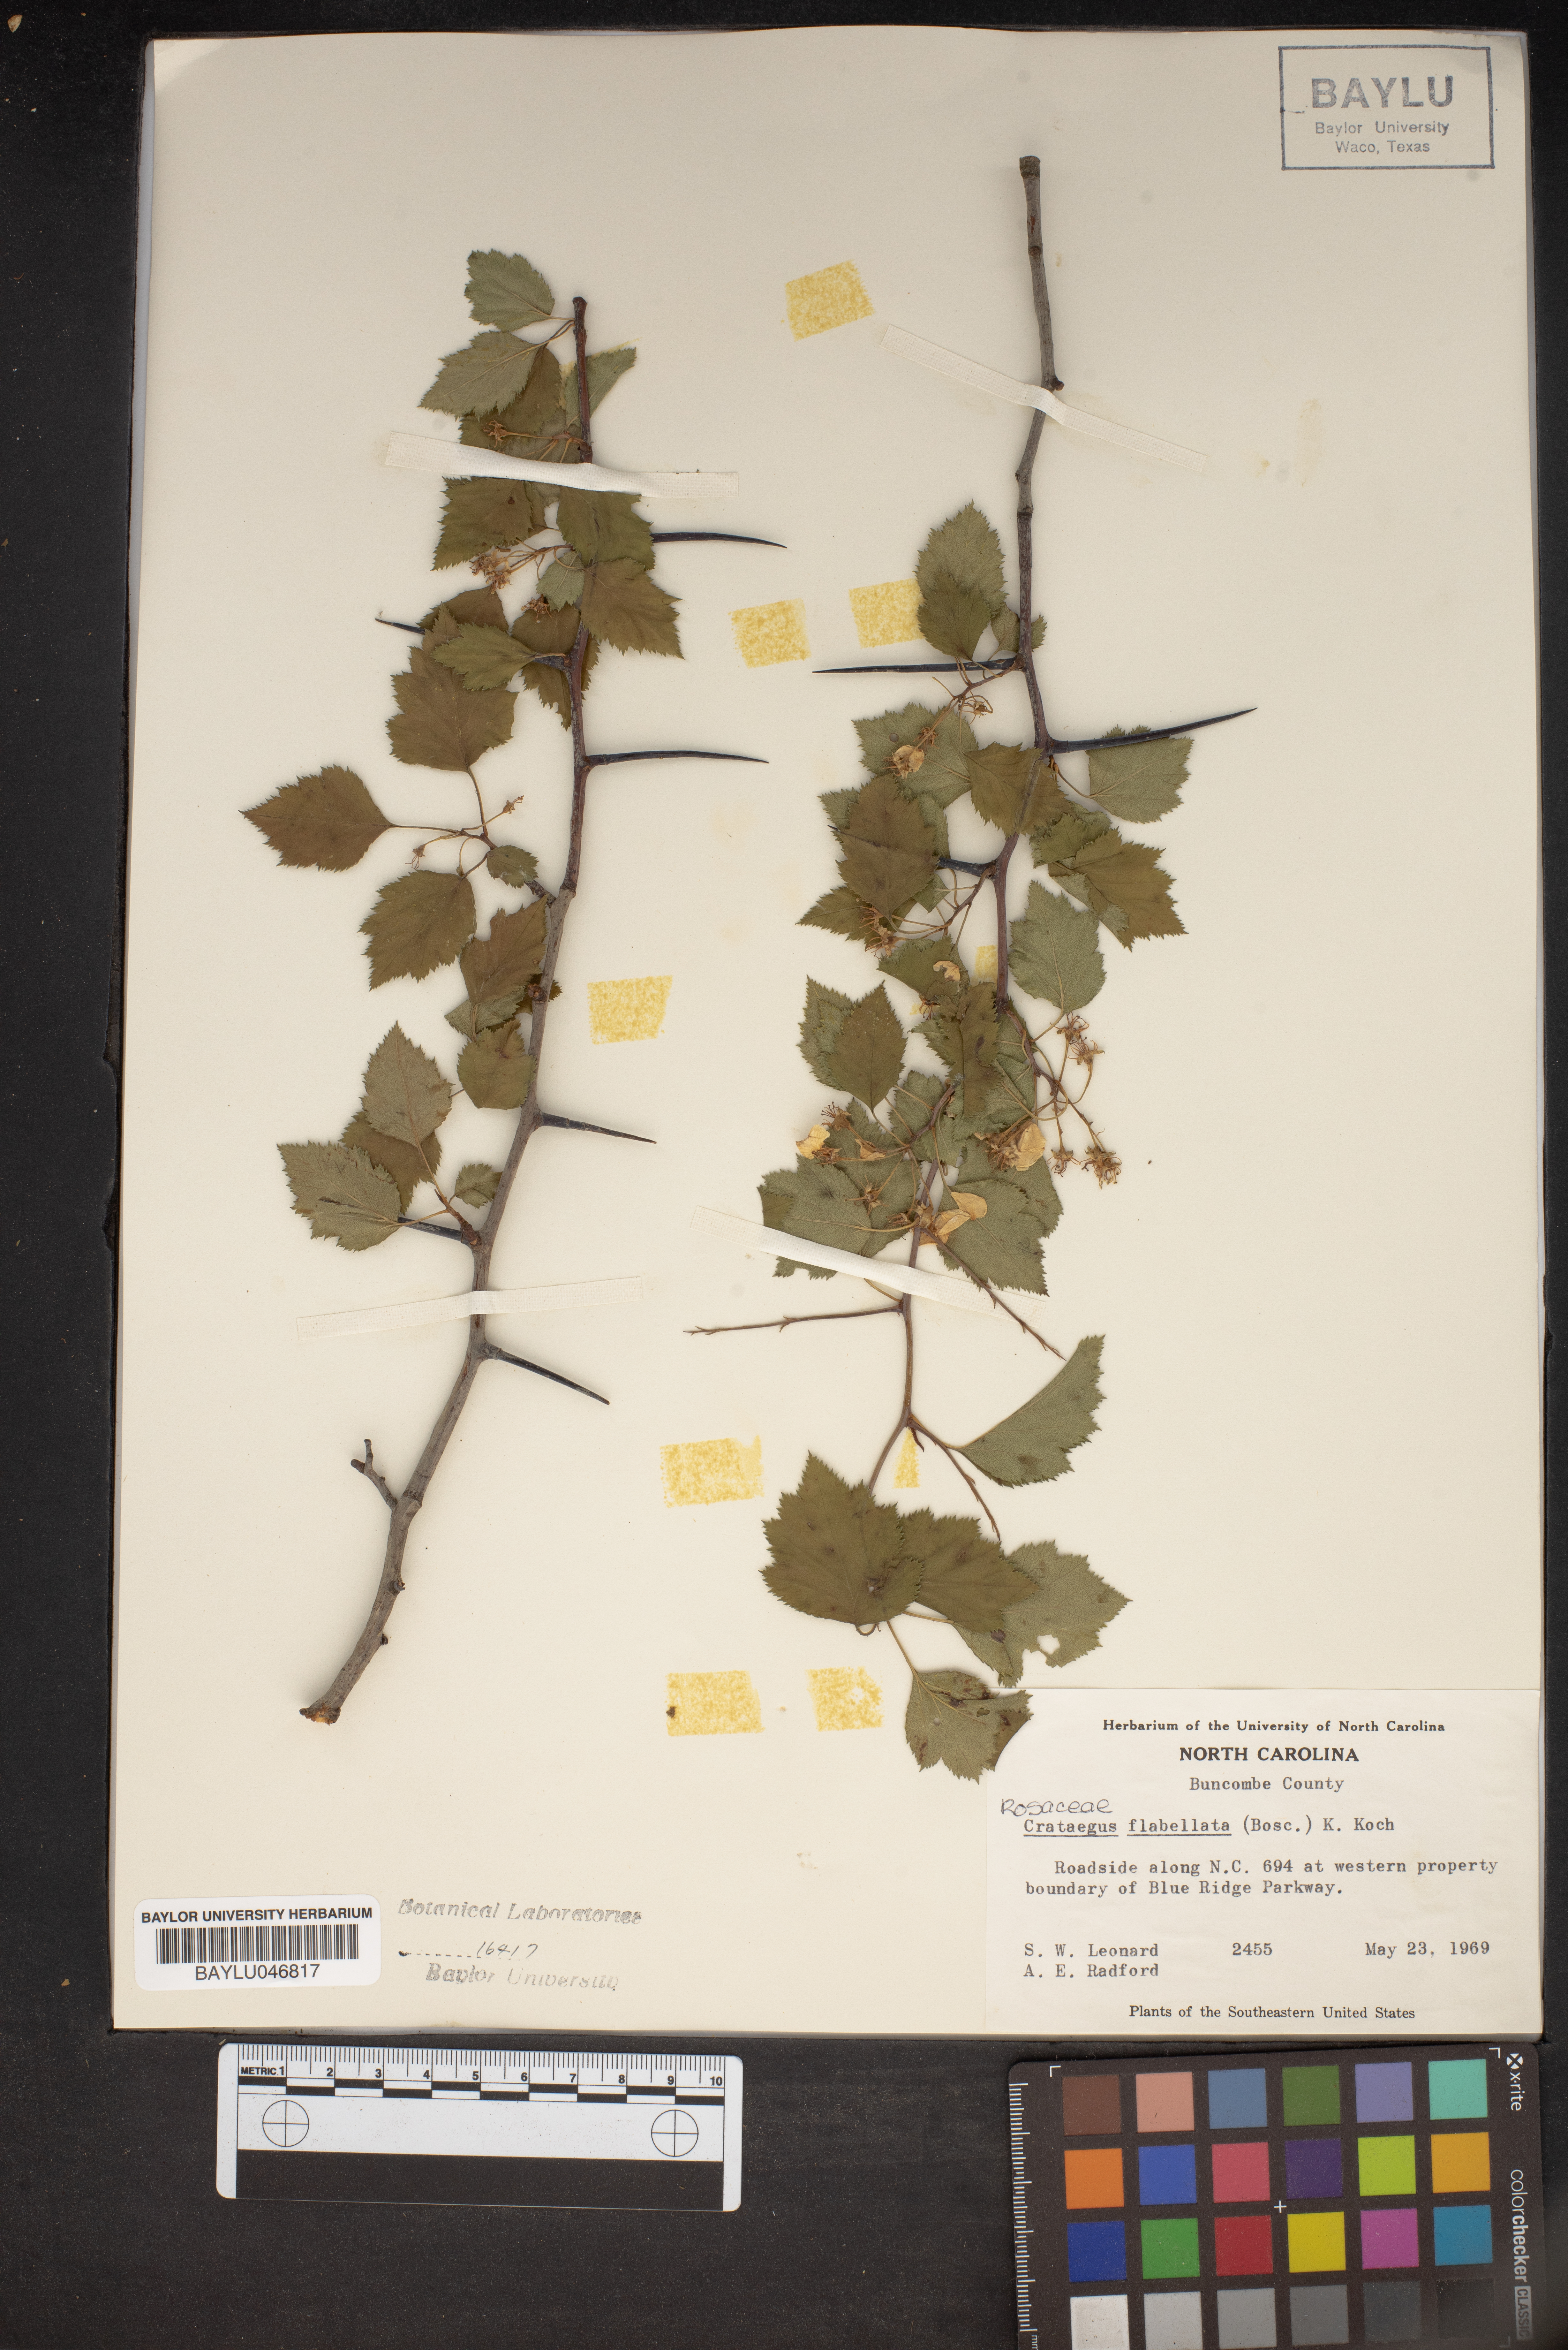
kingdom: Plantae
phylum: Tracheophyta
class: Magnoliopsida
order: Rosales
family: Rosaceae
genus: Crataegus
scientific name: Crataegus flabellata
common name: Bosc's hawthorn
